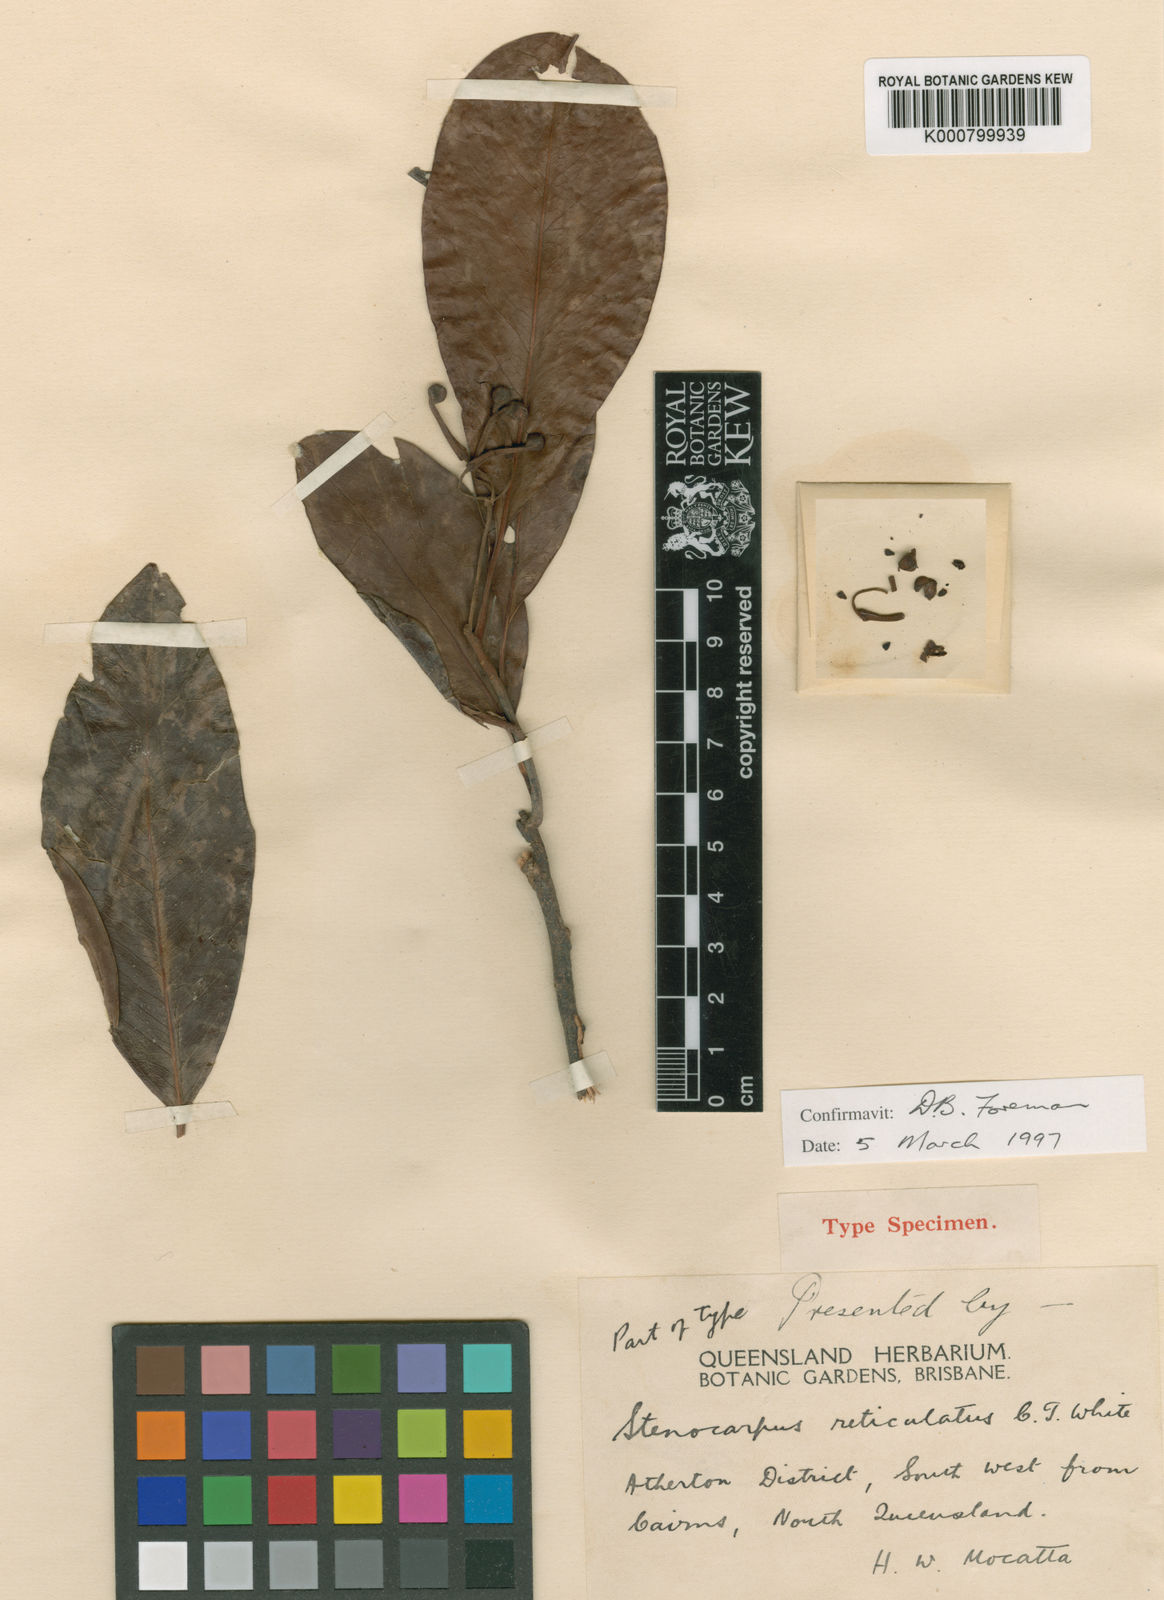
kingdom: Plantae
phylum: Tracheophyta
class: Magnoliopsida
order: Proteales
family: Proteaceae
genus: Stenocarpus
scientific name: Stenocarpus reticulatus
